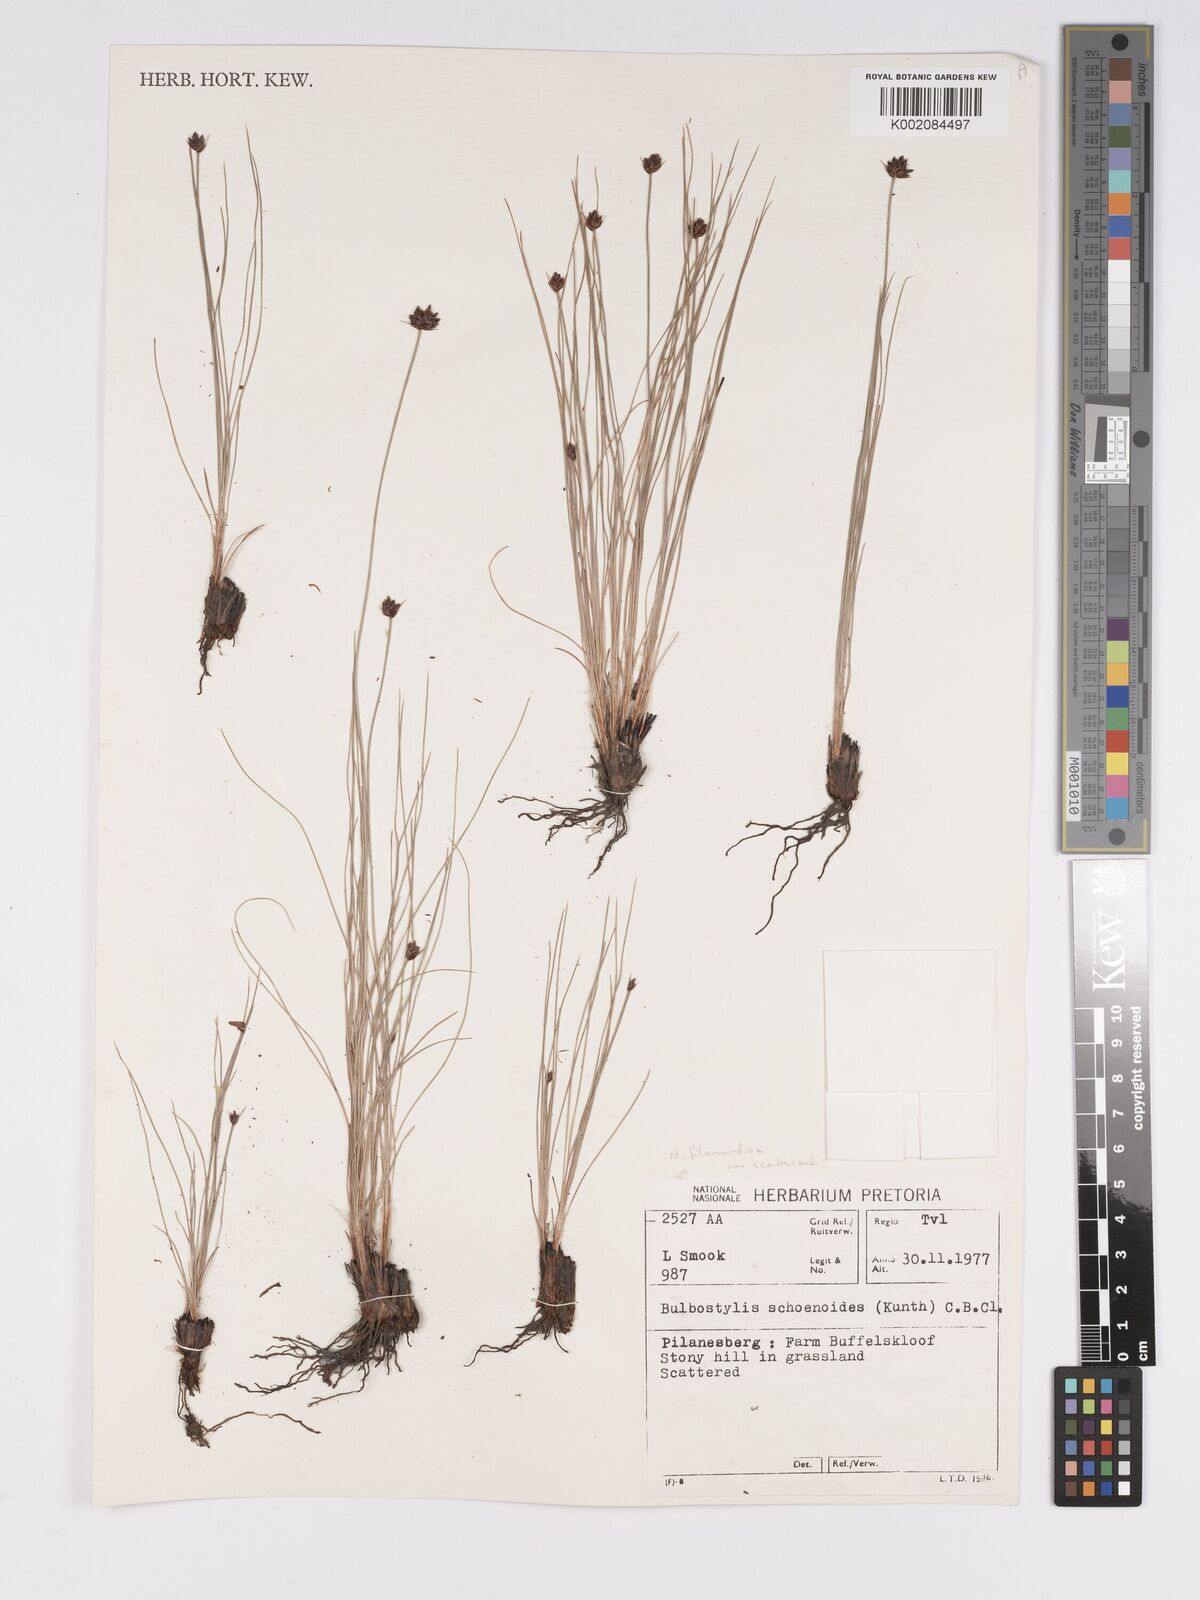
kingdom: Plantae
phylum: Tracheophyta
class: Liliopsida
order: Poales
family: Cyperaceae
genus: Bulbostylis
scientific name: Bulbostylis filamentosa
